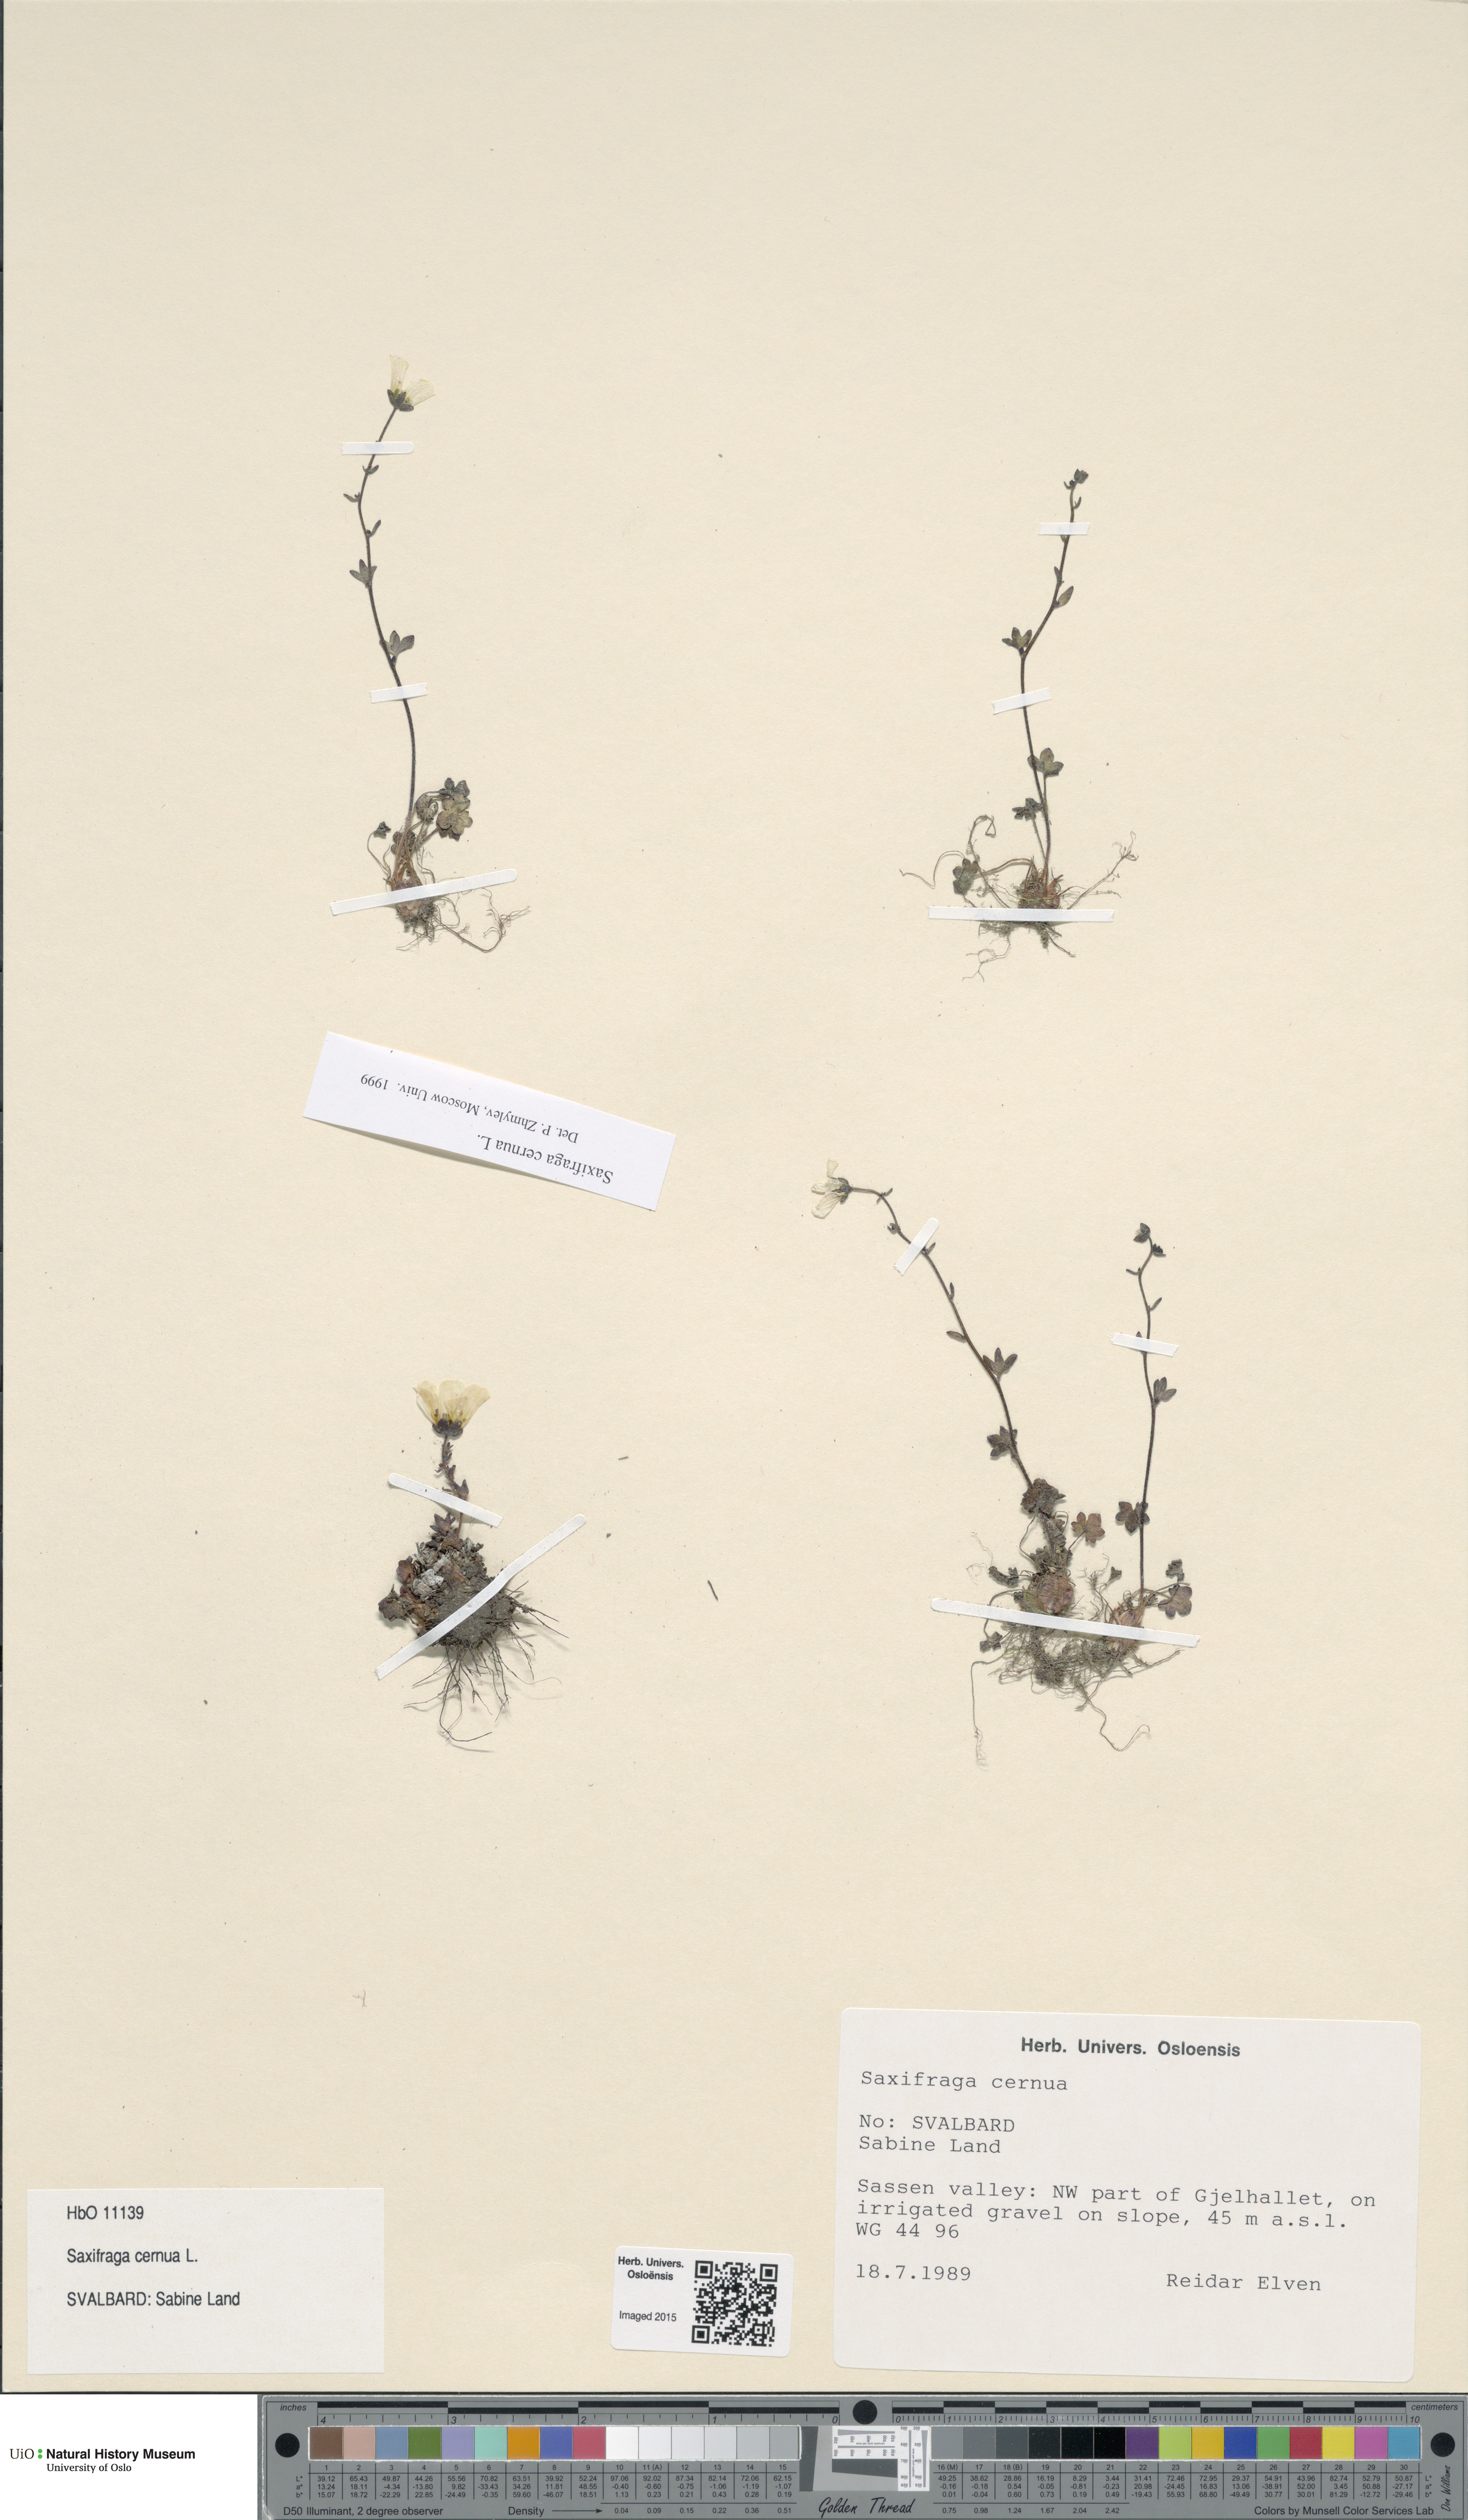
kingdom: Plantae
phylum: Tracheophyta
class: Magnoliopsida
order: Saxifragales
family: Saxifragaceae
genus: Saxifraga
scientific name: Saxifraga cernua
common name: Drooping saxifrage
